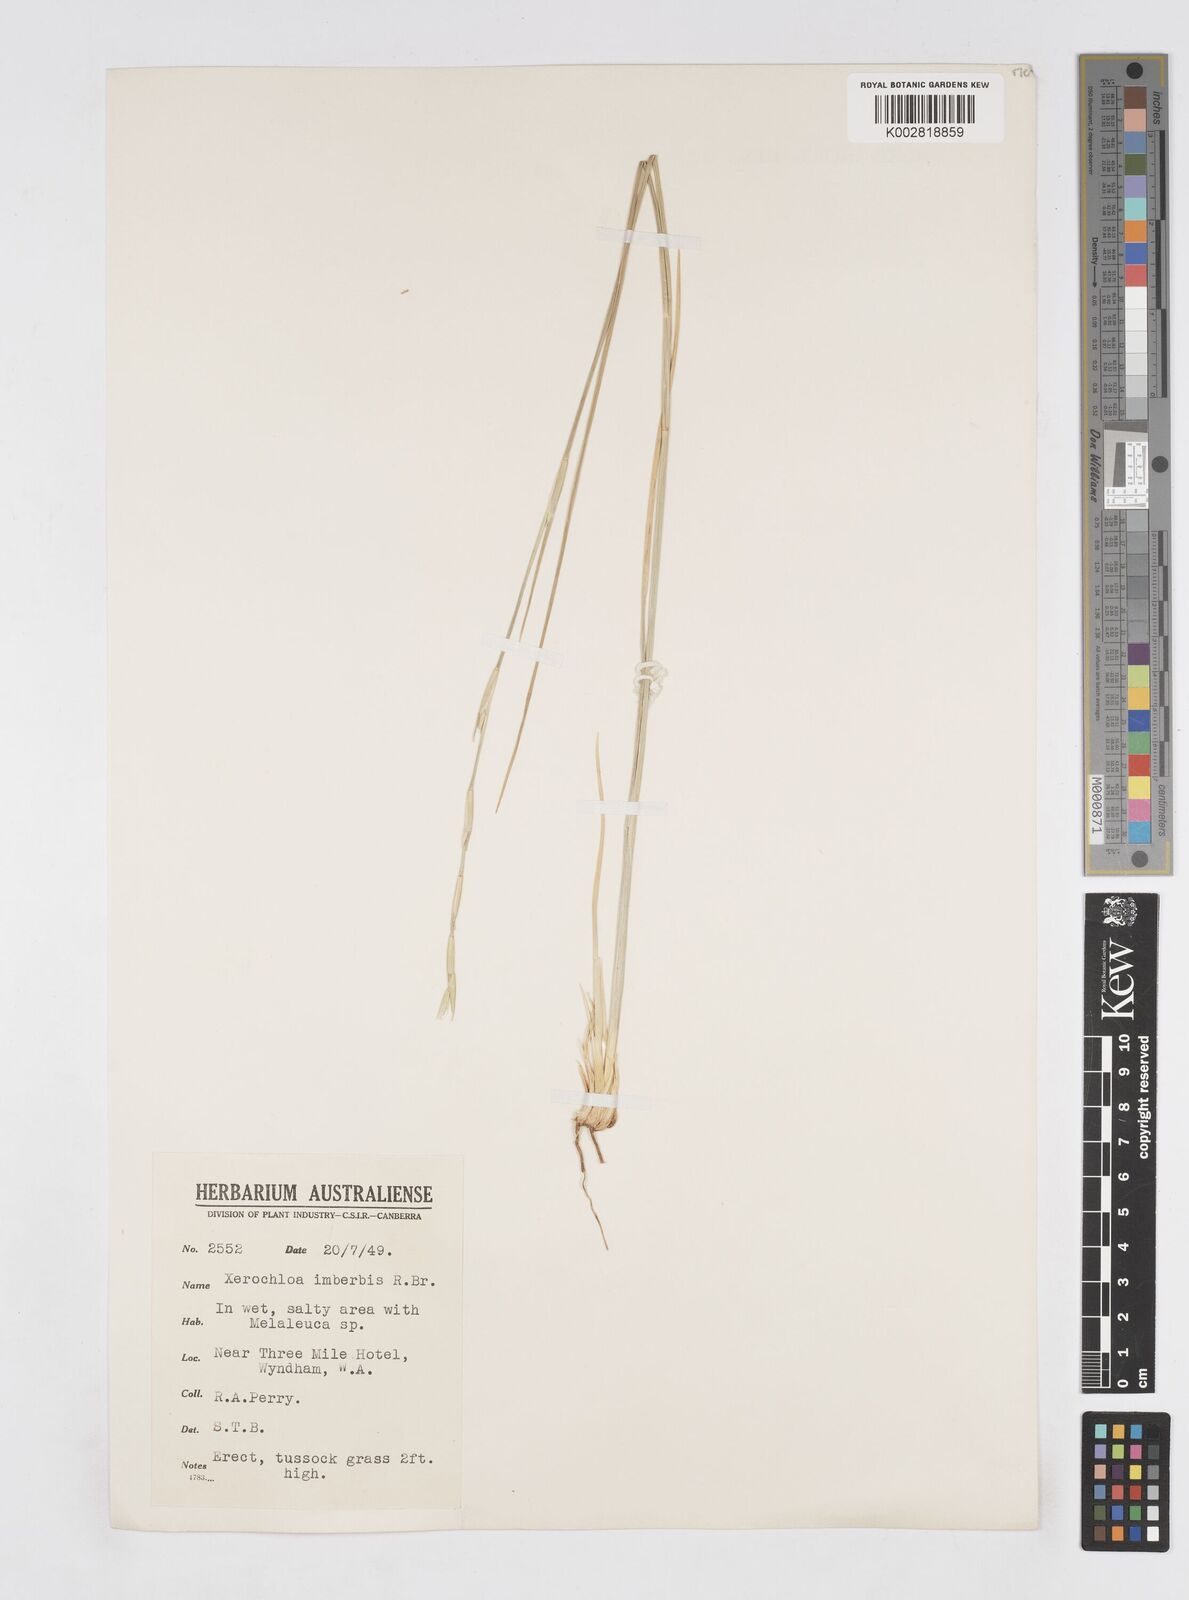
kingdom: Plantae
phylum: Tracheophyta
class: Liliopsida
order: Poales
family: Poaceae
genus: Xerochloa
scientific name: Xerochloa imberbis
